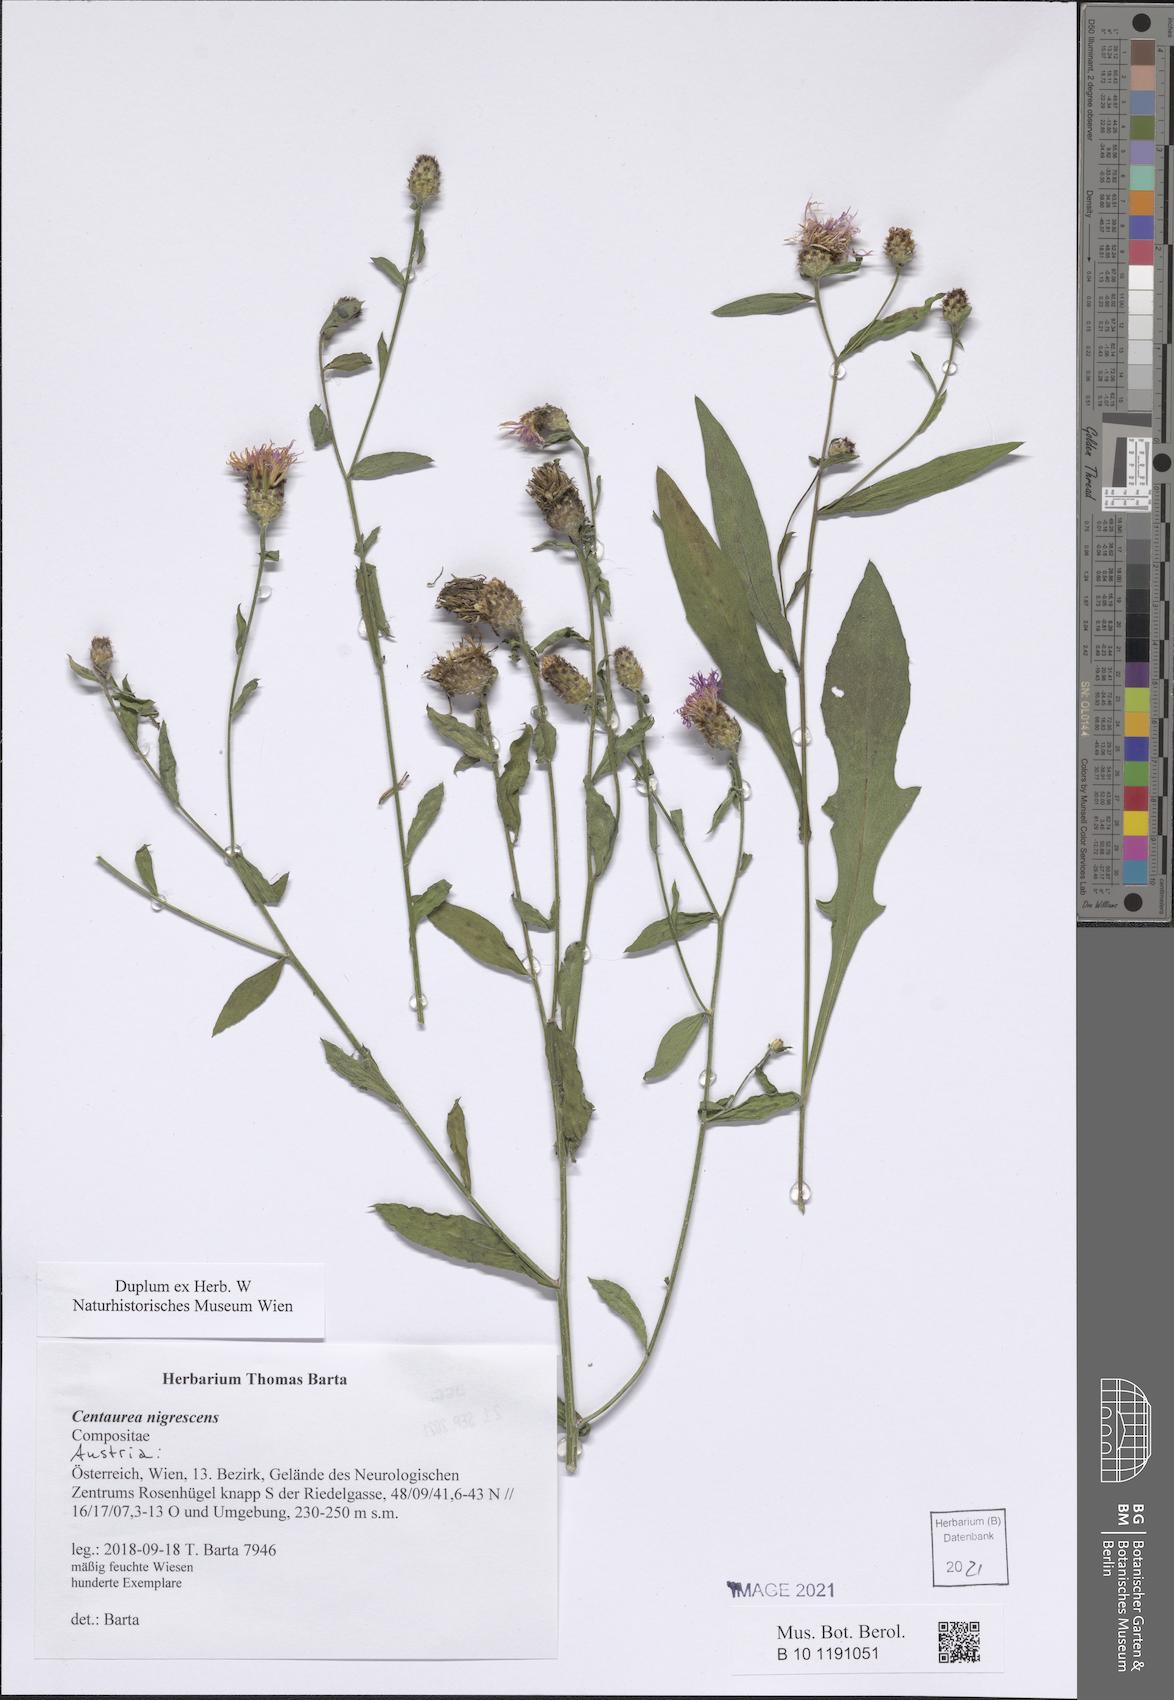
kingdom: Plantae
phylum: Tracheophyta
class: Magnoliopsida
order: Asterales
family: Asteraceae
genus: Centaurea
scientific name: Centaurea nigrescens
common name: Tyrol knapweed
